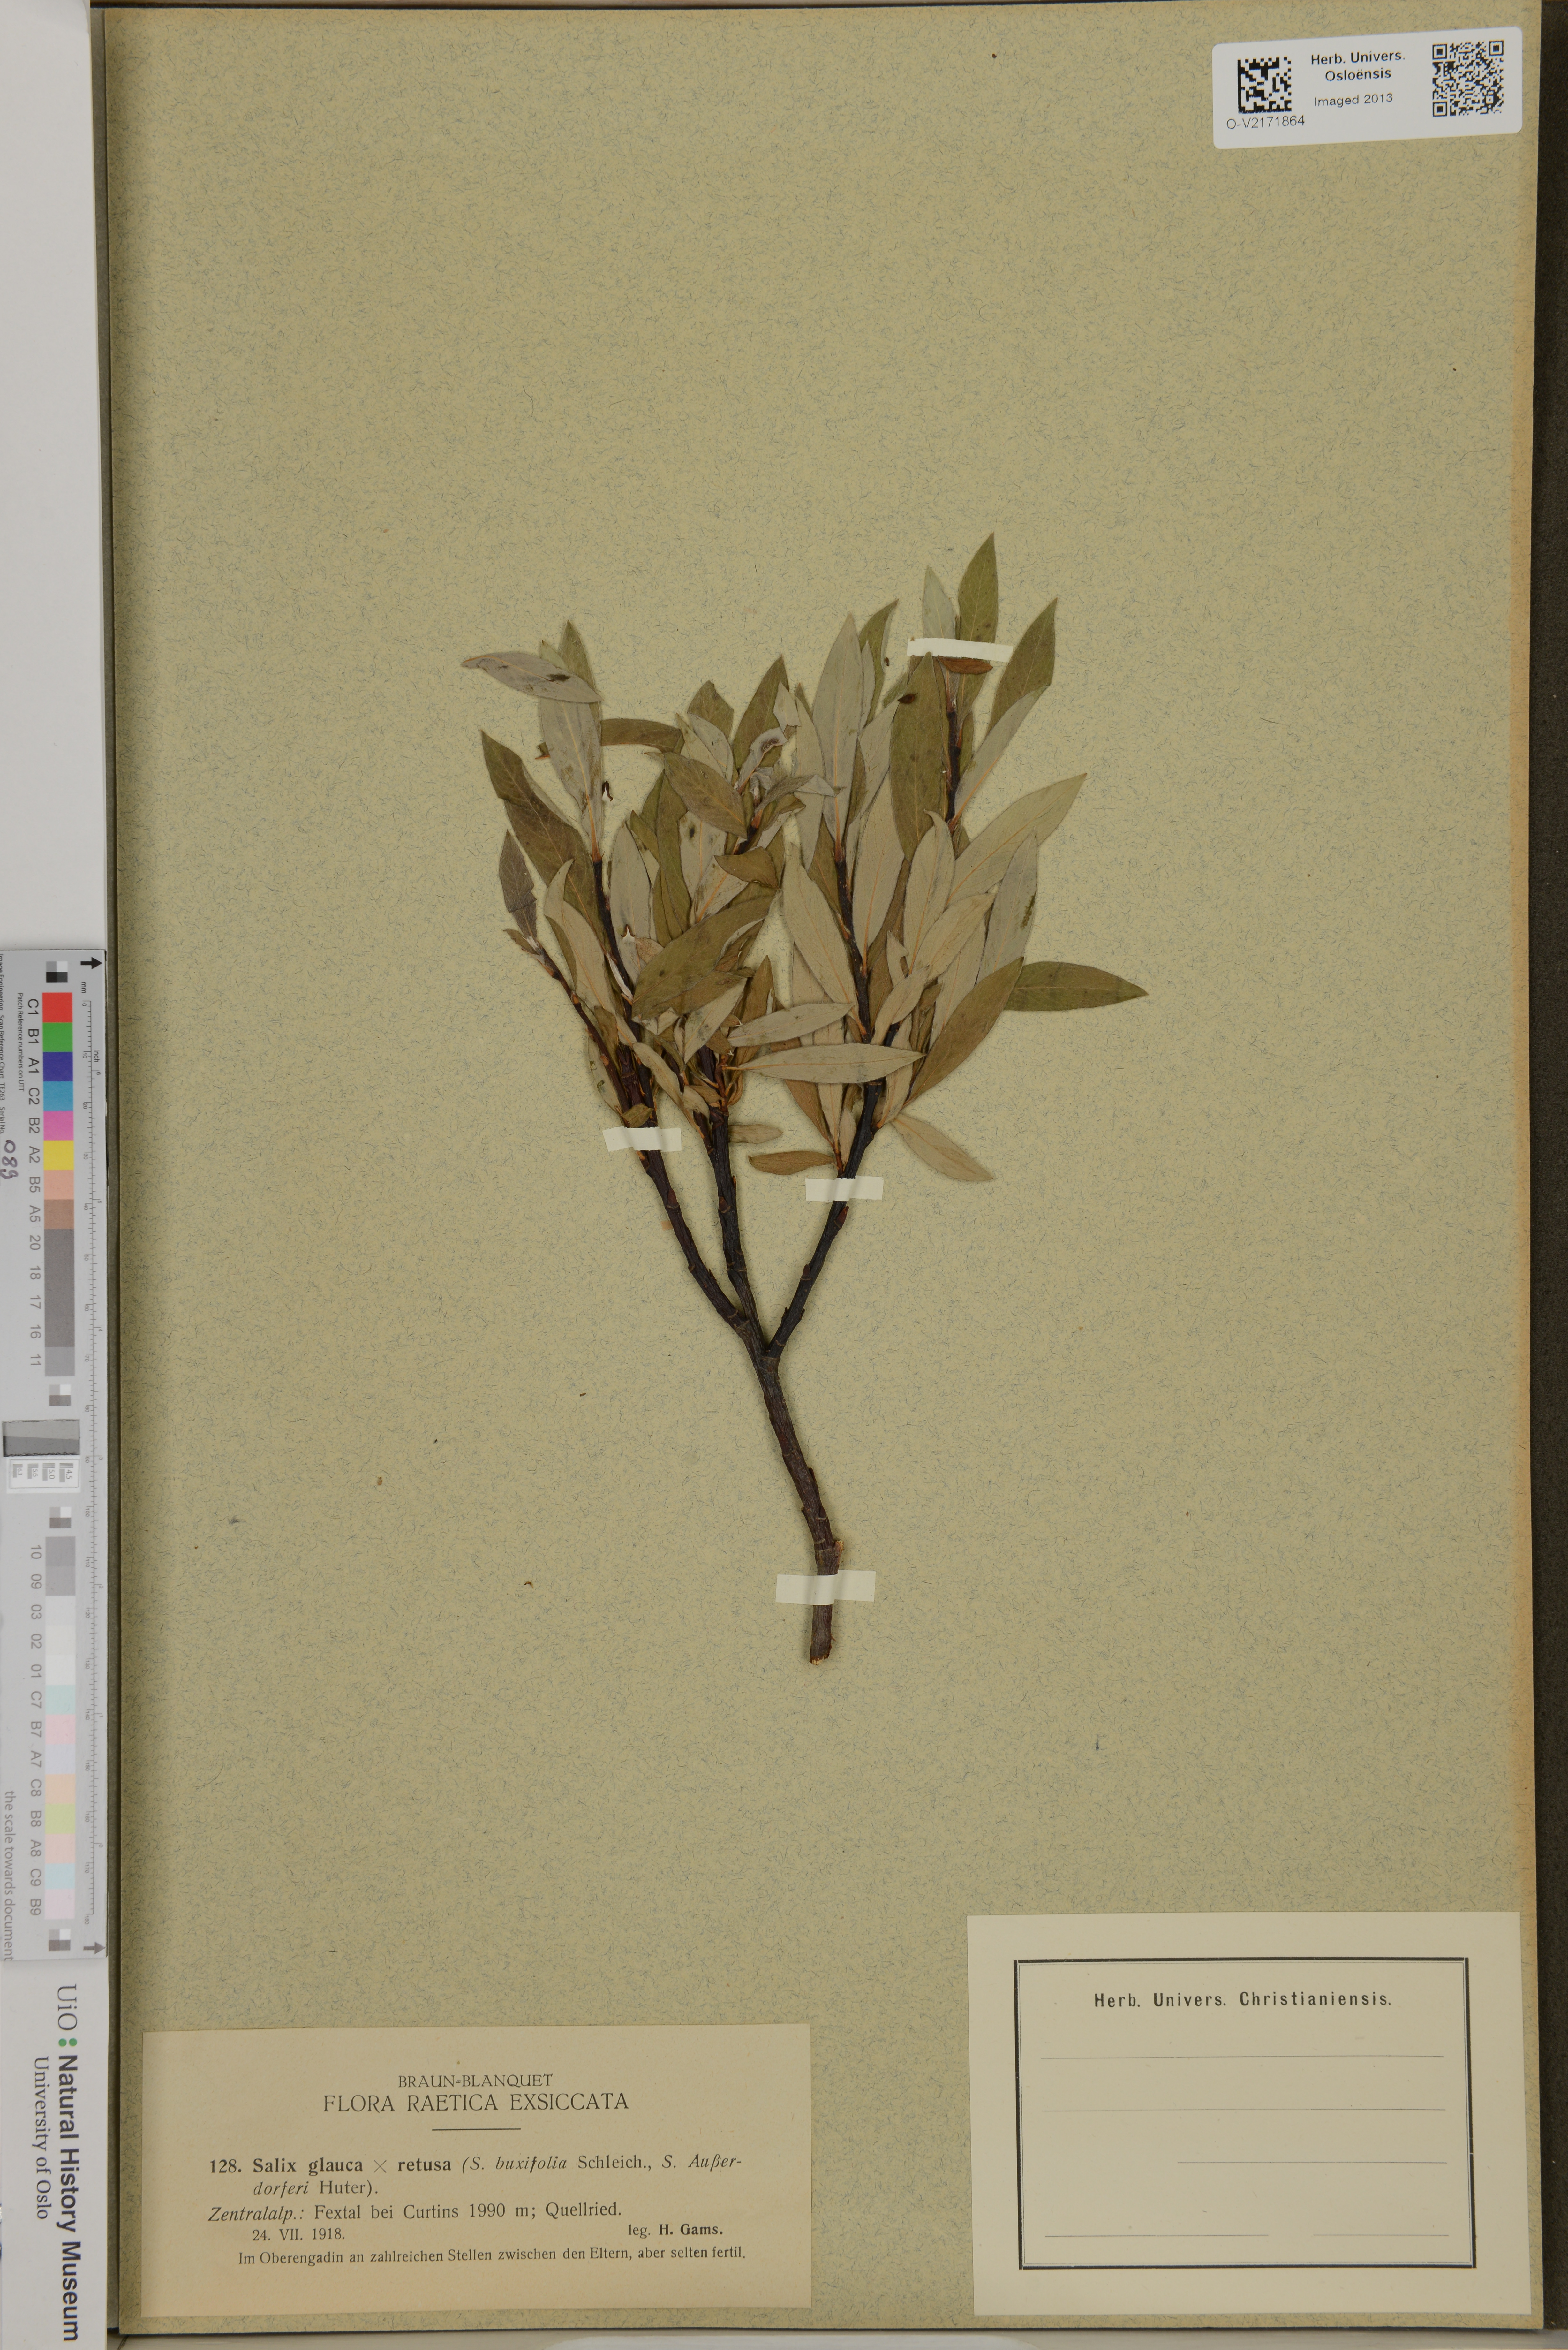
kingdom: Plantae
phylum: Tracheophyta
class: Magnoliopsida
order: Malpighiales
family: Salicaceae
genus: Salix
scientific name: Salix glauca
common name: Glaucous willow
